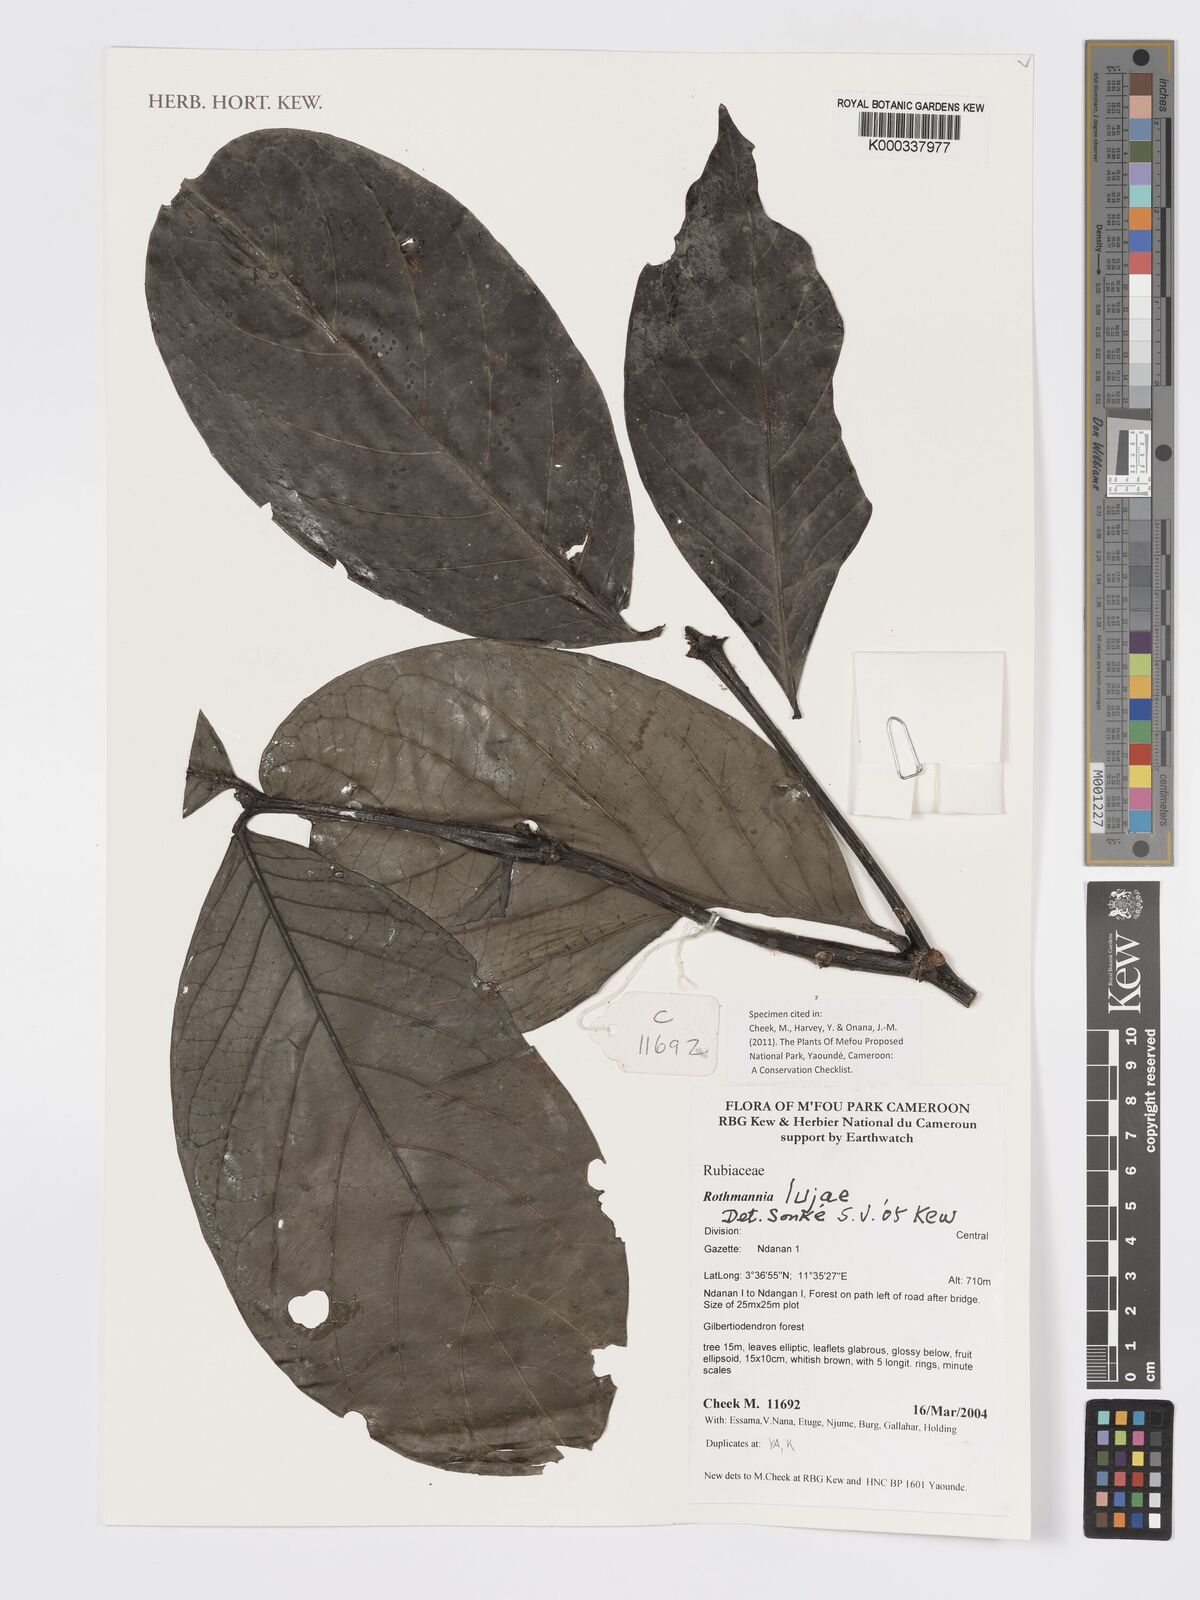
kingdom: Plantae
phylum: Tracheophyta
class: Magnoliopsida
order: Gentianales
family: Rubiaceae
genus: Rothmannia
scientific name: Rothmannia lujae
